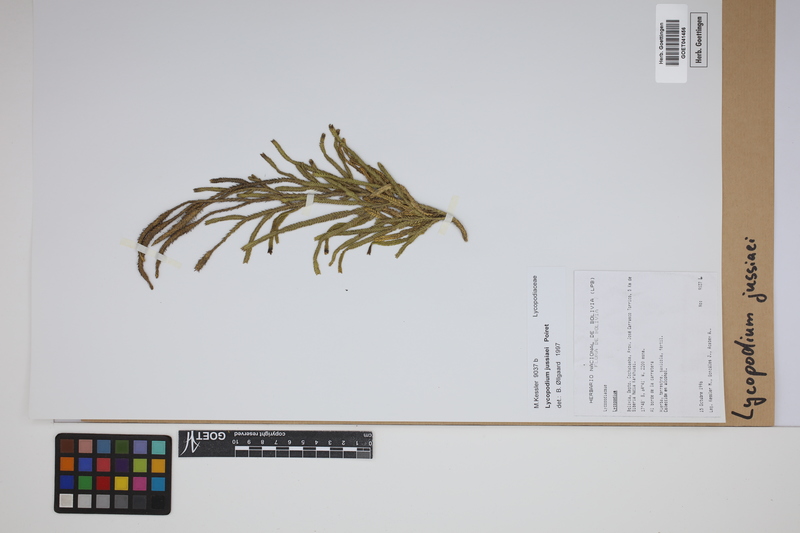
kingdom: Plantae
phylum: Tracheophyta
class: Lycopodiopsida
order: Lycopodiales
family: Lycopodiaceae
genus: Diphasium
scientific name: Diphasium jussiaei
